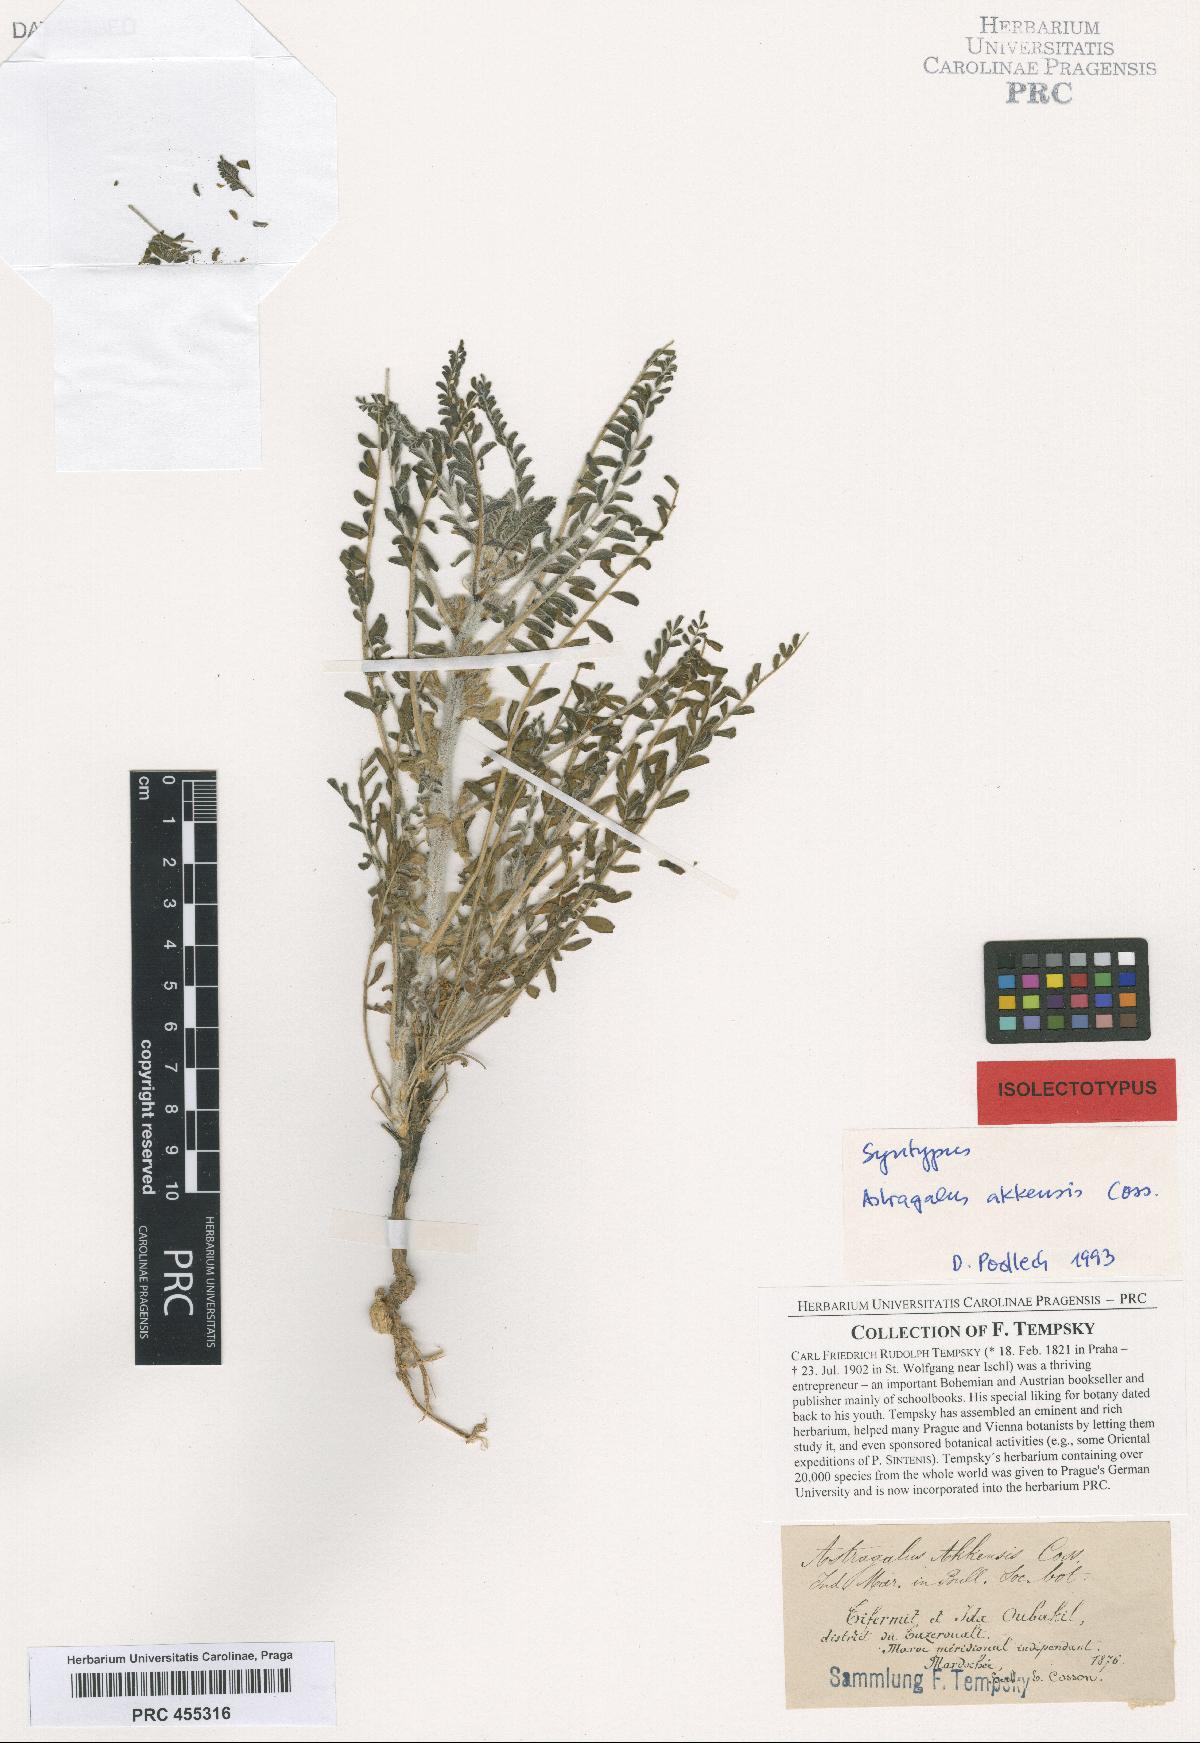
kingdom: Plantae
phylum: Tracheophyta
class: Magnoliopsida
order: Fabales
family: Fabaceae
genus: Astragalus
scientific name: Astragalus akkensis
